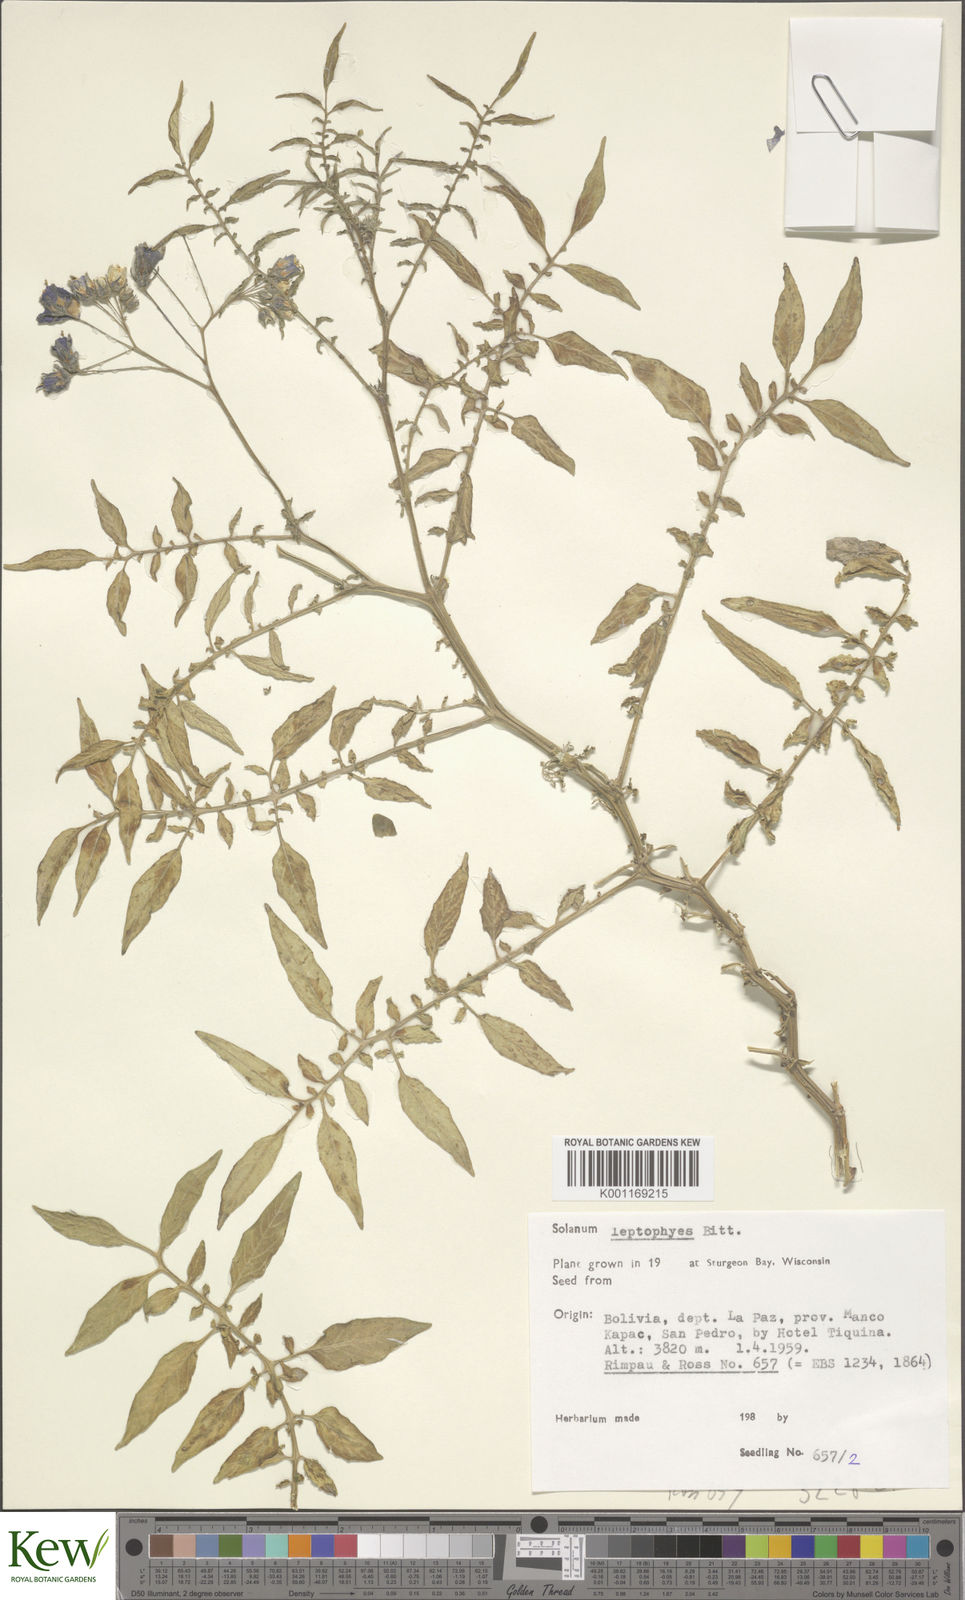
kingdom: Plantae
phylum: Tracheophyta
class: Magnoliopsida
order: Solanales
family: Solanaceae
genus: Solanum
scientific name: Solanum brevicaule
